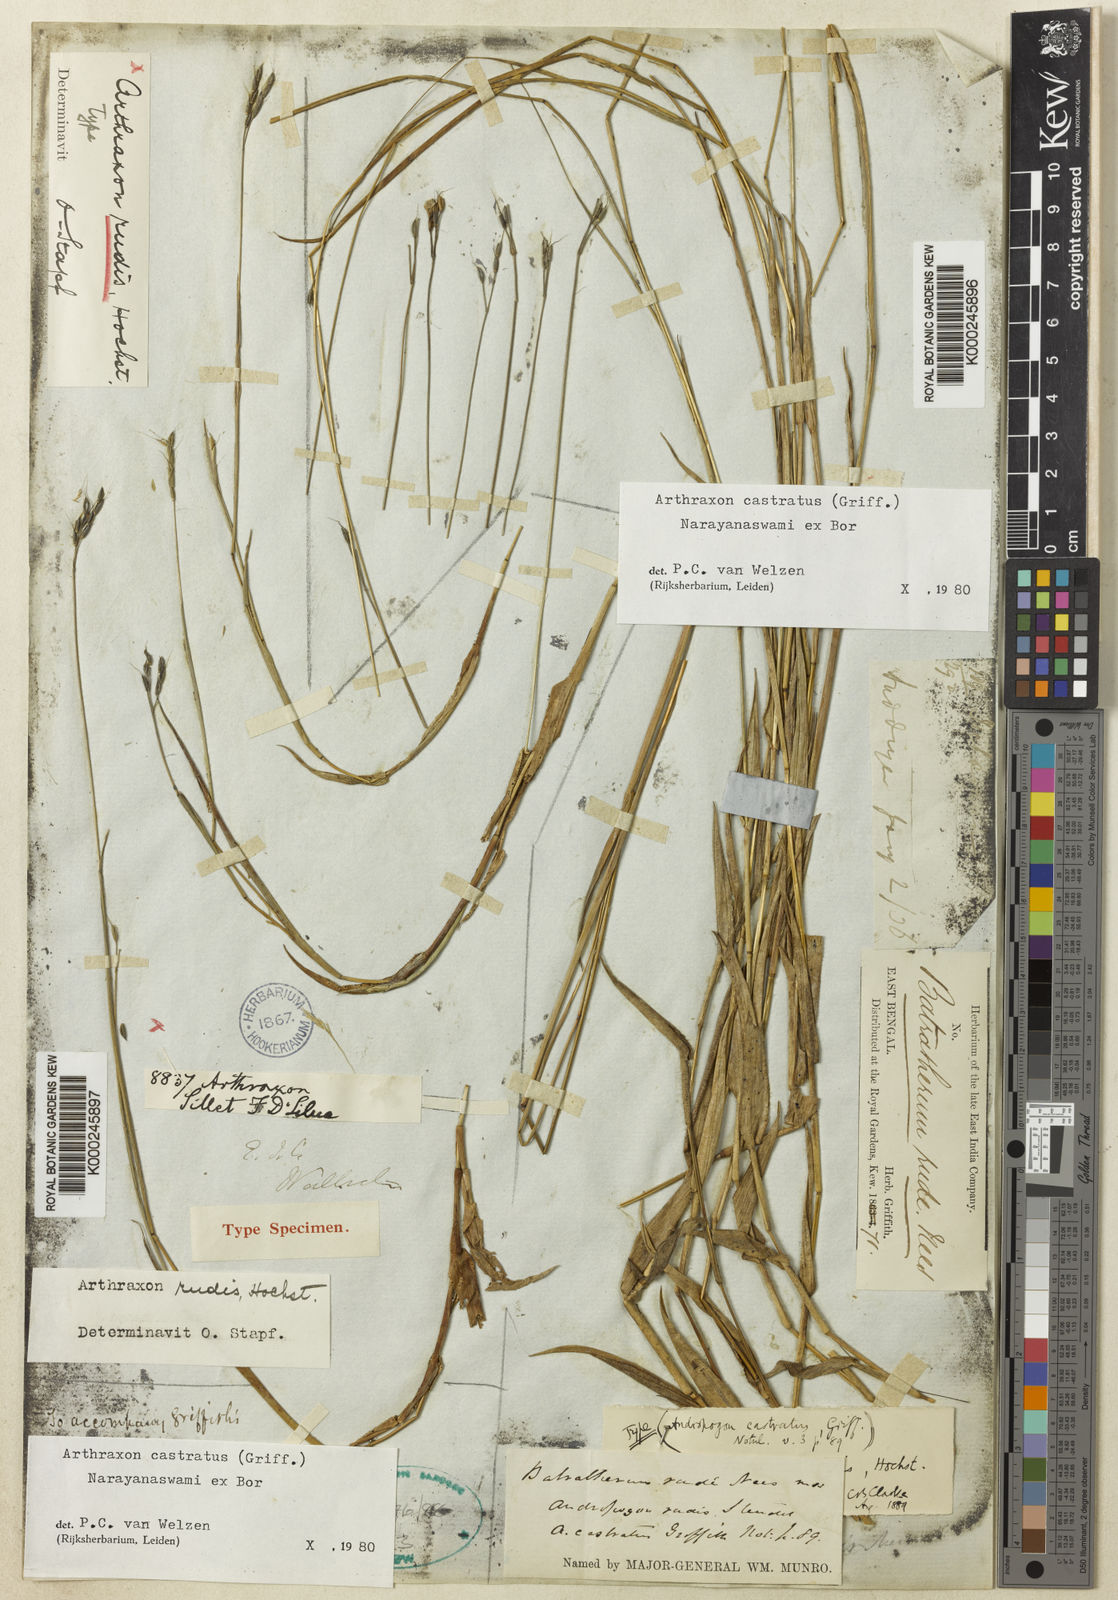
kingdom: Plantae
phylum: Tracheophyta
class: Liliopsida
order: Poales
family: Poaceae
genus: Arthraxon
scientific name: Arthraxon castratus
